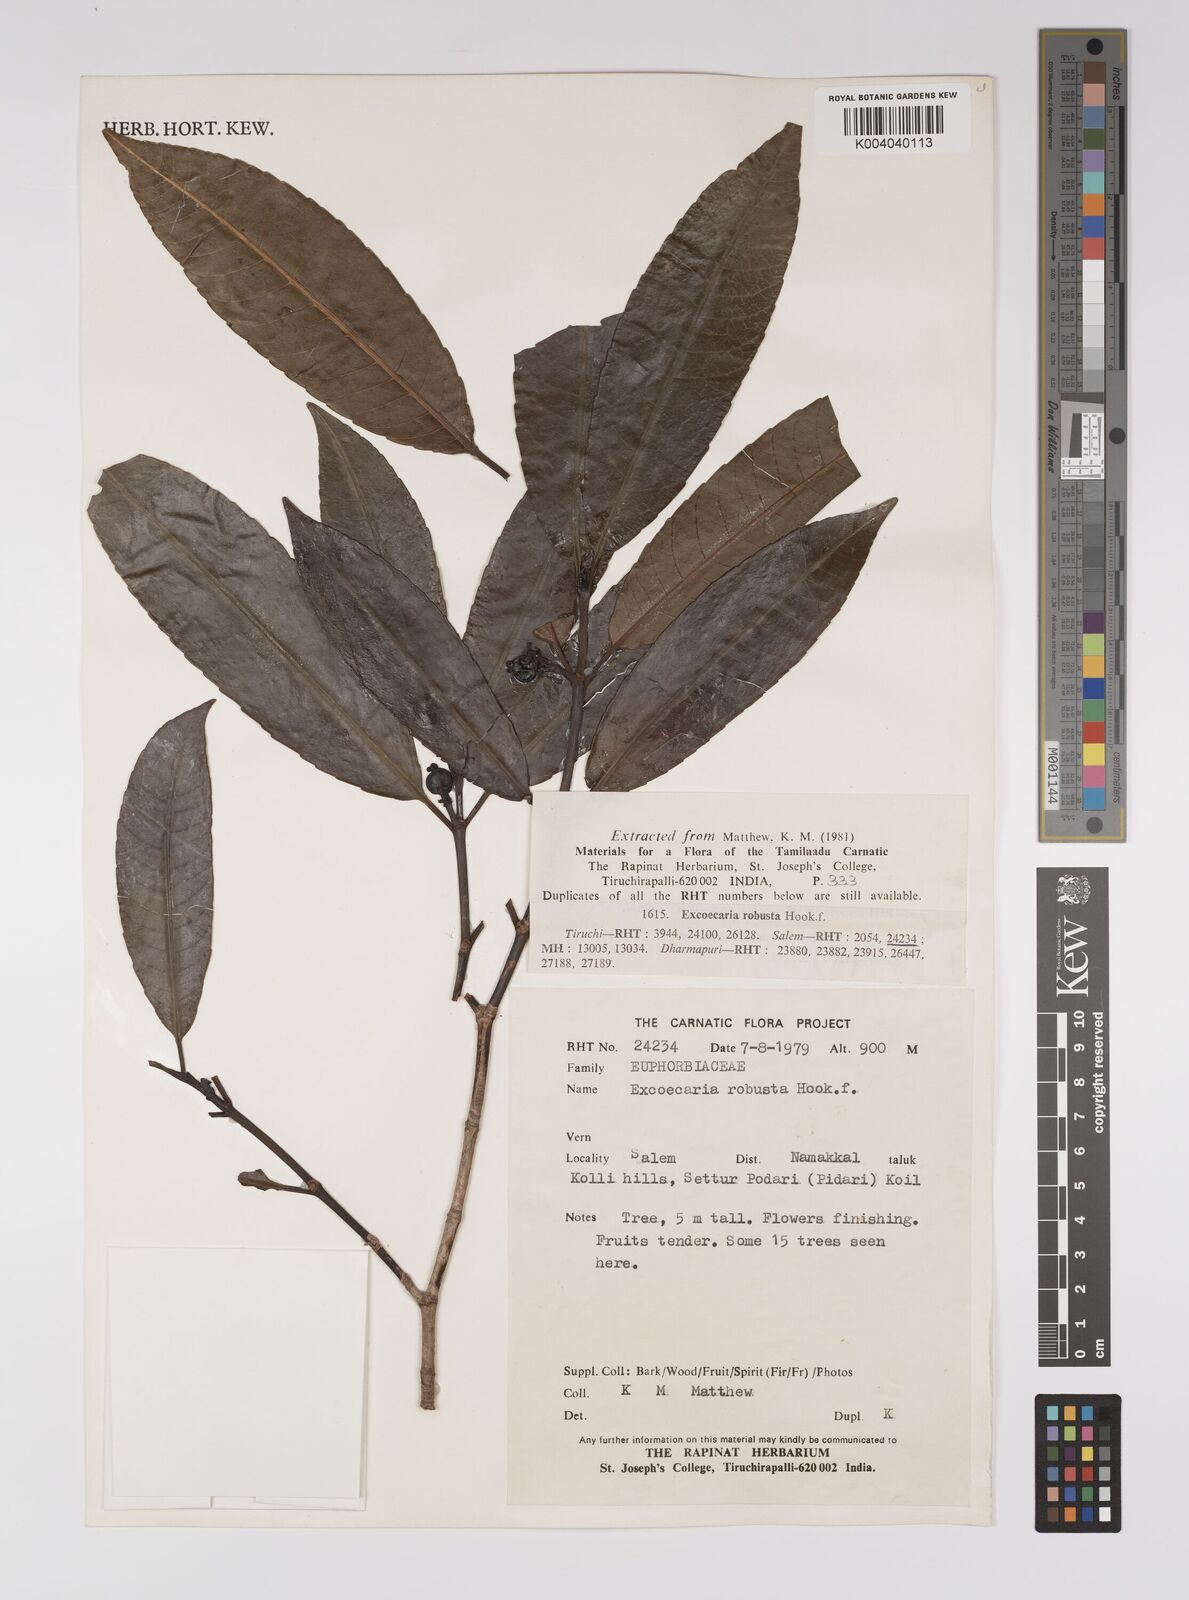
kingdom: Plantae
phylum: Tracheophyta
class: Magnoliopsida
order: Malpighiales
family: Euphorbiaceae
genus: Excoecaria
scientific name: Excoecaria oppositifolia
